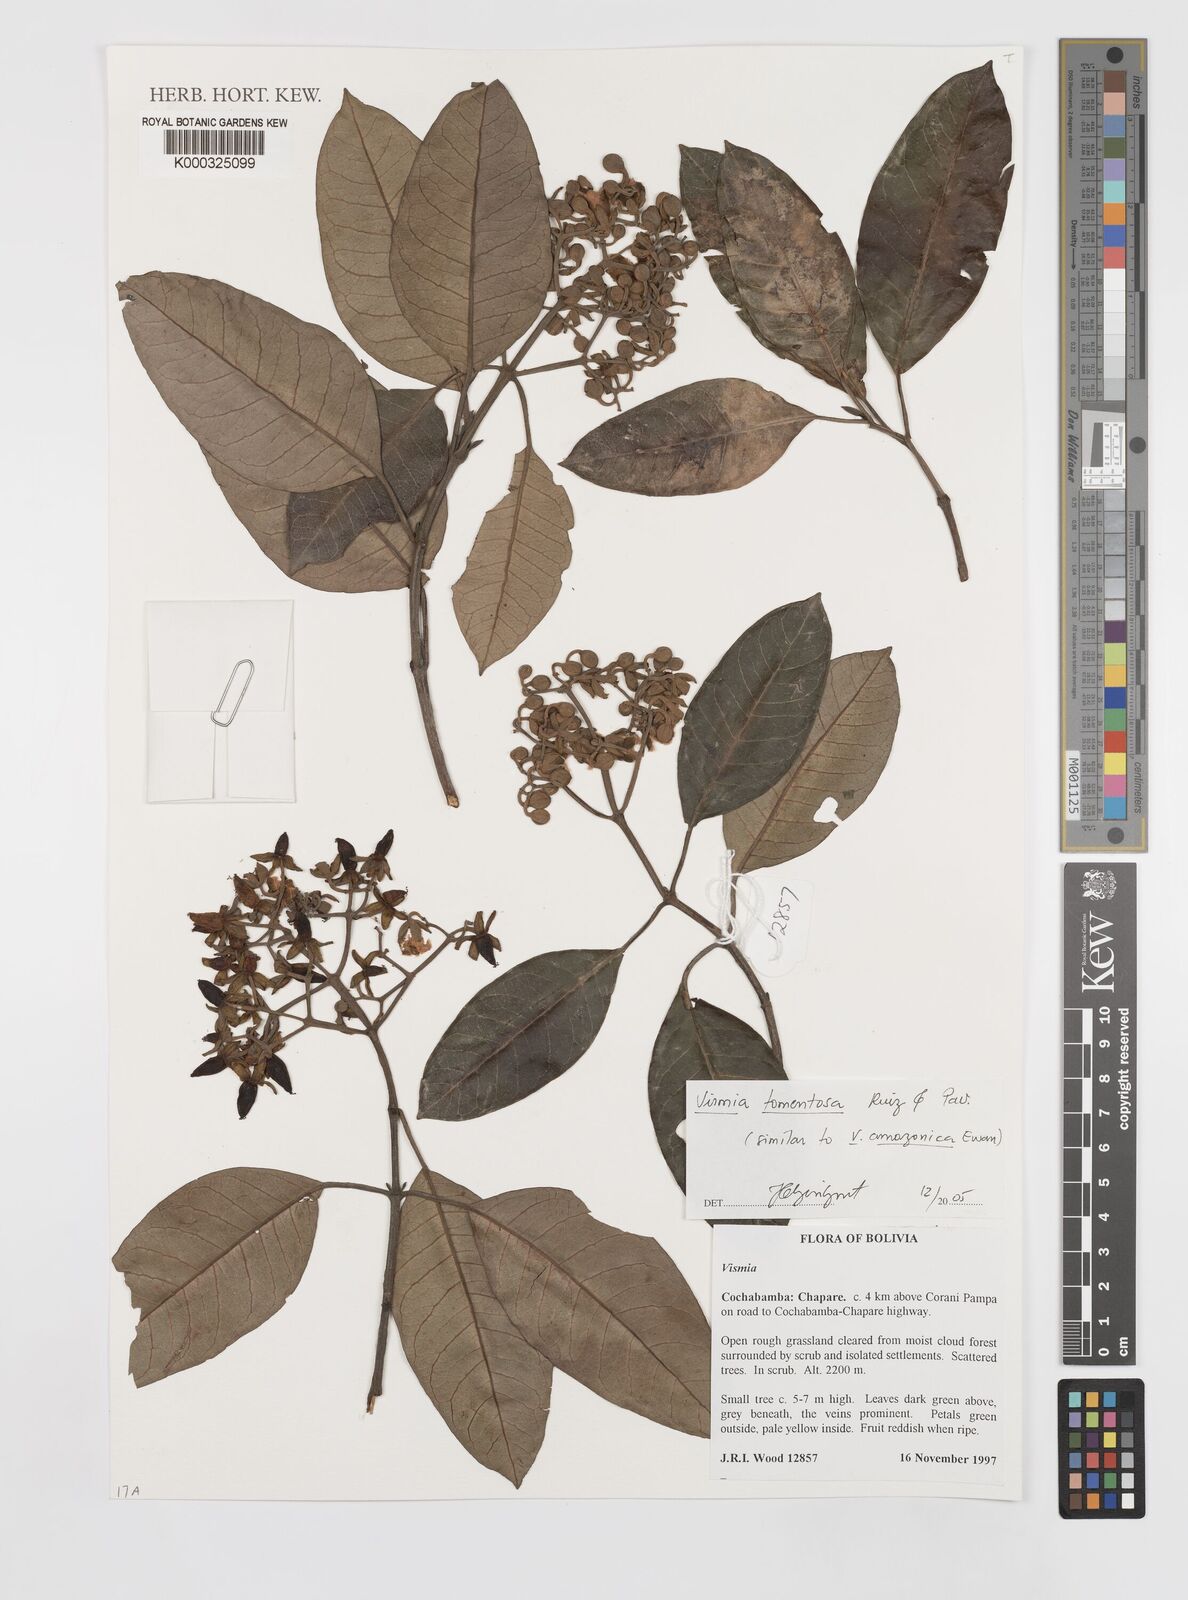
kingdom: Plantae
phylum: Tracheophyta
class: Magnoliopsida
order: Malpighiales
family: Hypericaceae
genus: Vismia
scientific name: Vismia tomentosa
